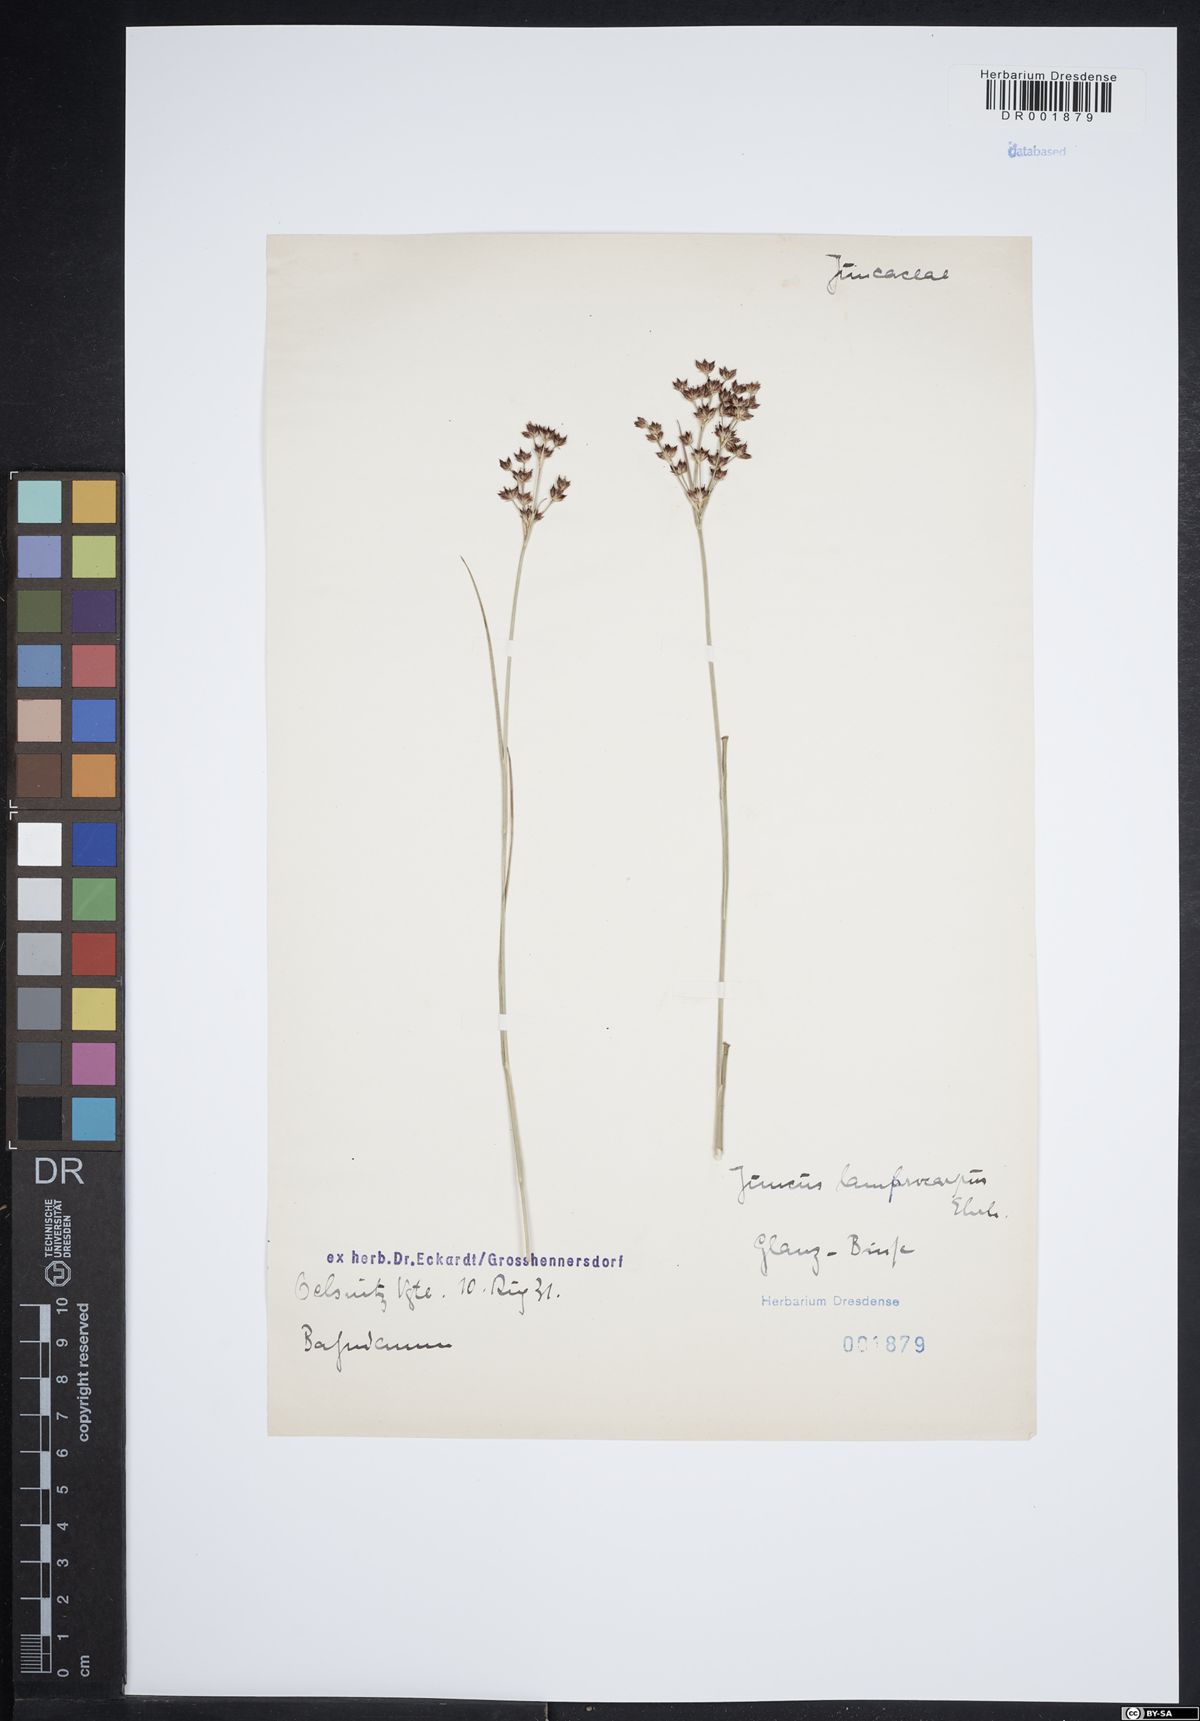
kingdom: Plantae
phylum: Tracheophyta
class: Liliopsida
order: Poales
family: Juncaceae
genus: Juncus
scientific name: Juncus articulatus
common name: Jointed rush
